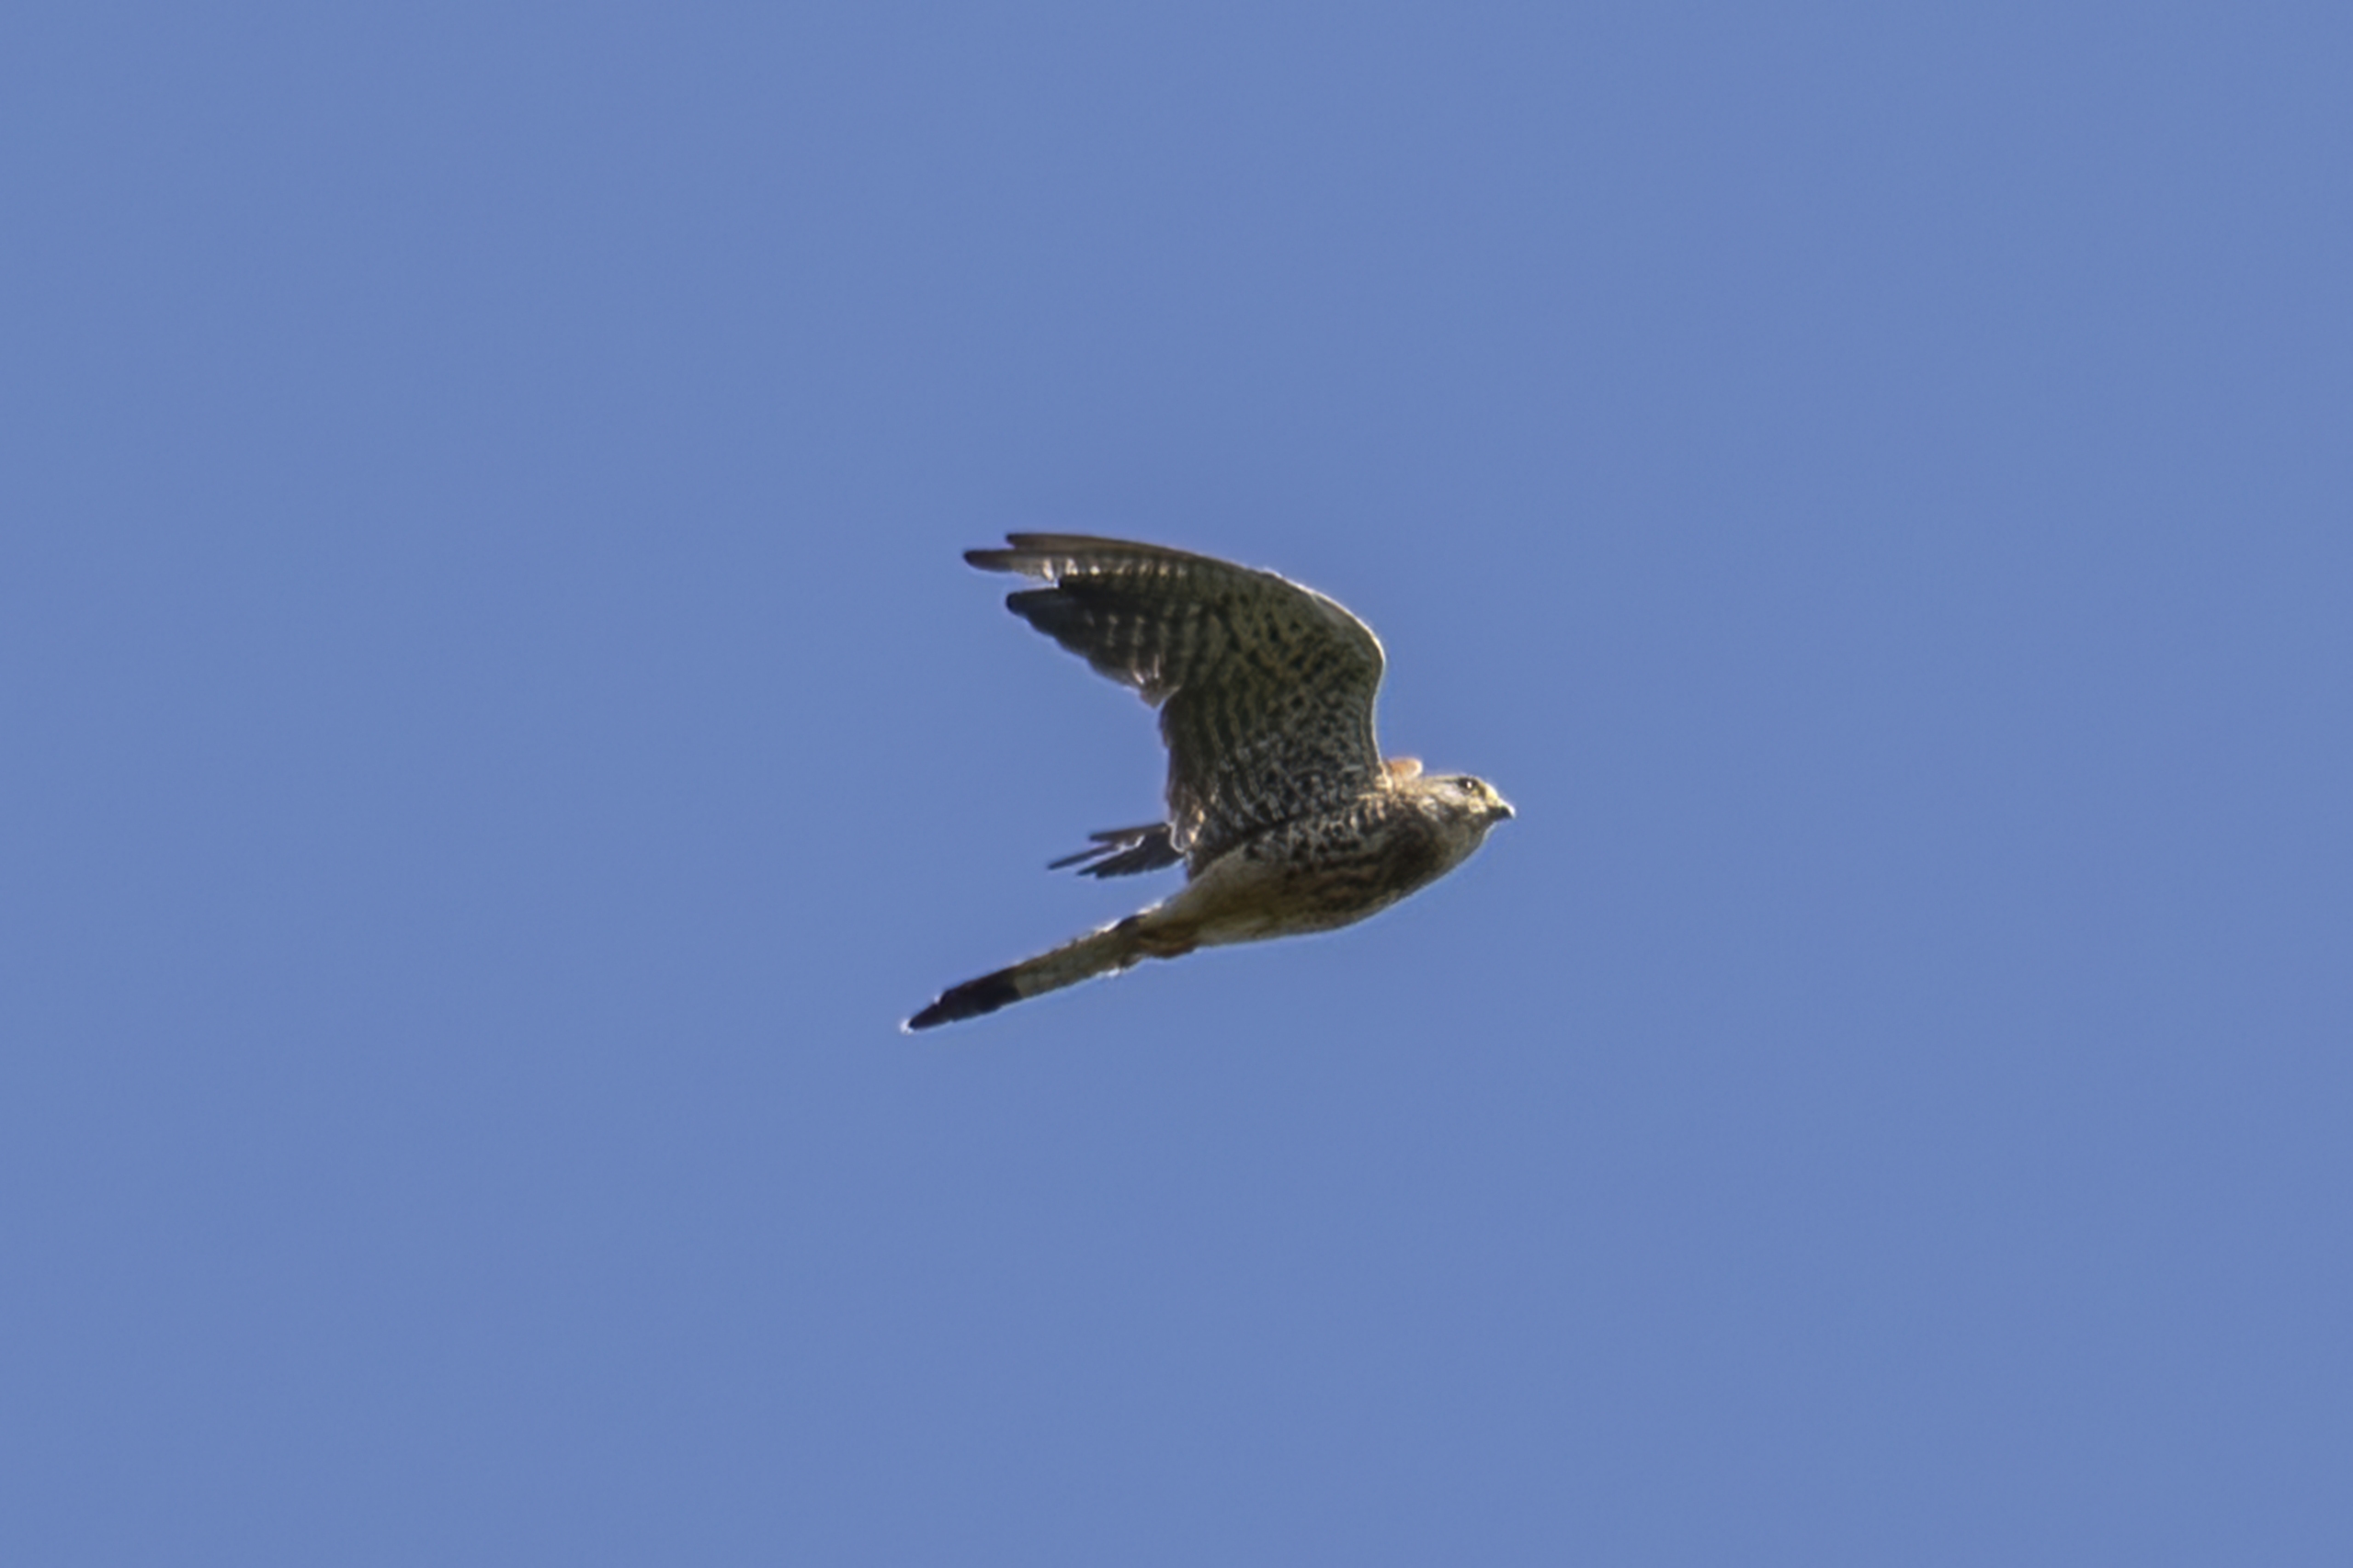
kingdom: Animalia
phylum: Chordata
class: Aves
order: Falconiformes
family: Falconidae
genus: Falco
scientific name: Falco tinnunculus
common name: Tårnfalk
